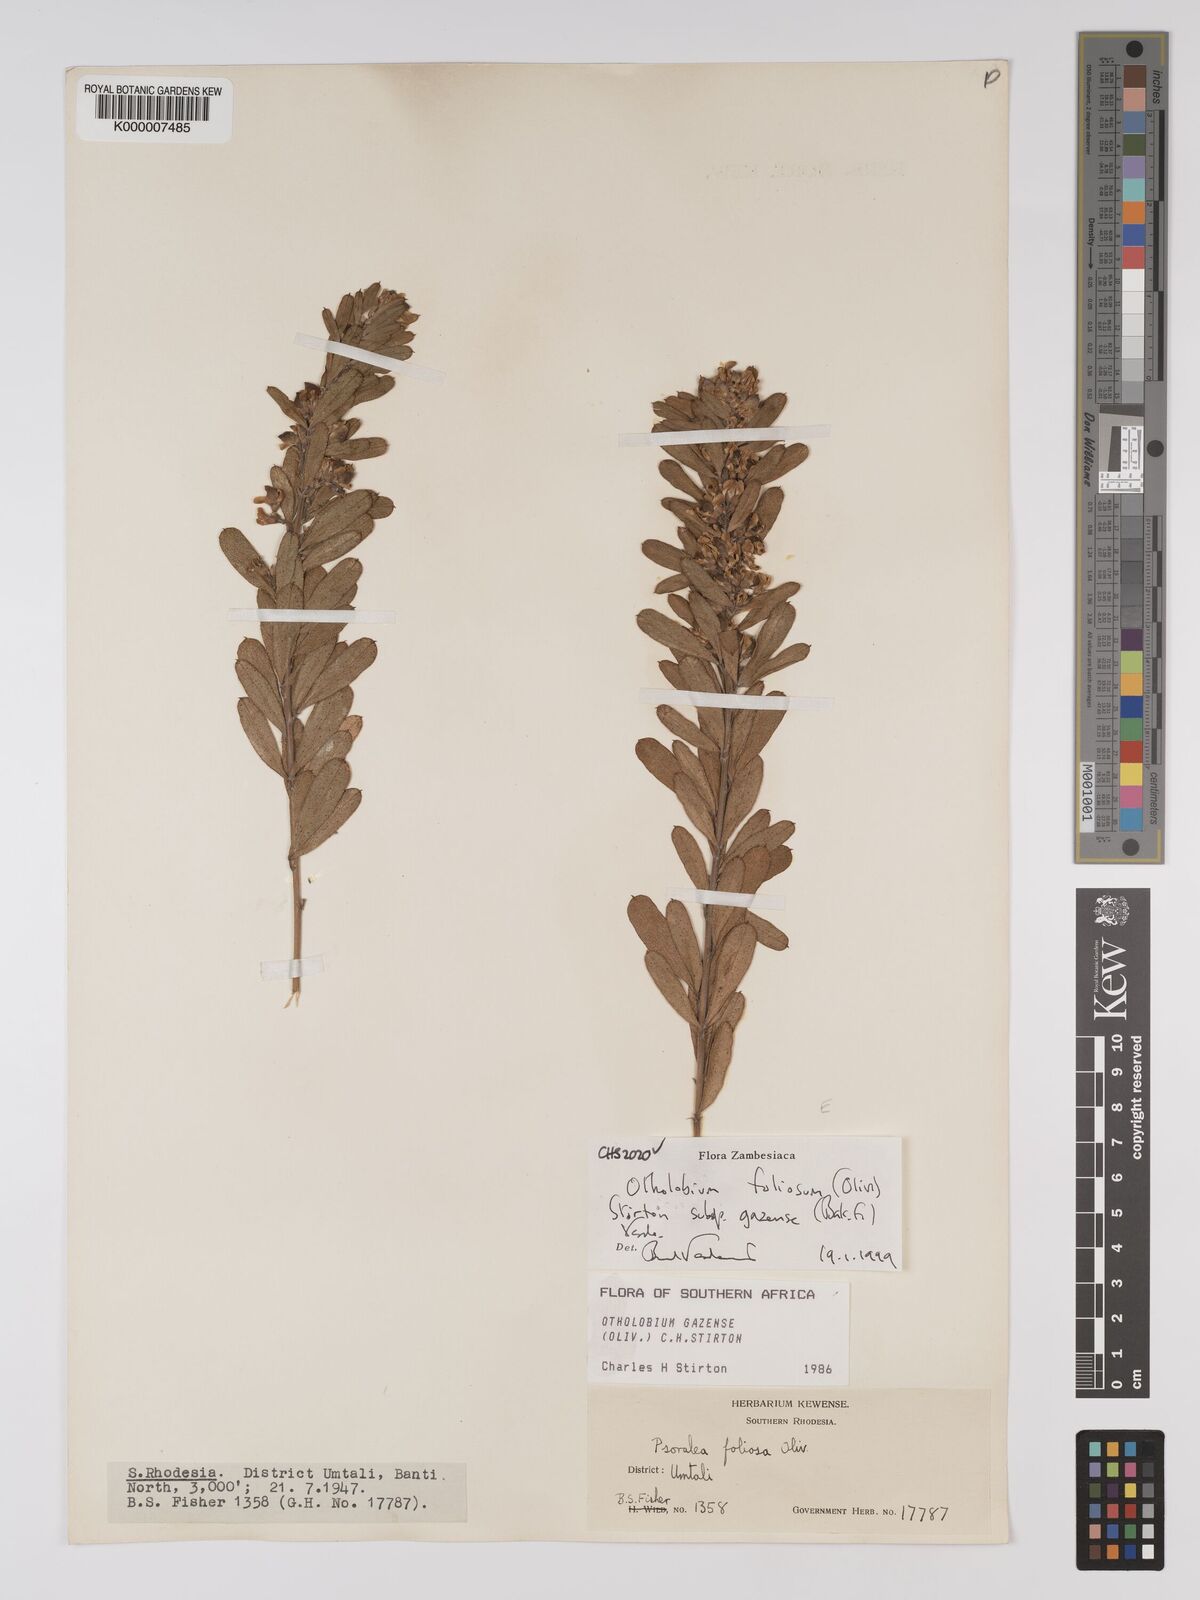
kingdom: Plantae
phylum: Tracheophyta
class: Magnoliopsida
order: Fabales
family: Fabaceae
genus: Psoralea
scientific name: Psoralea foliosa
